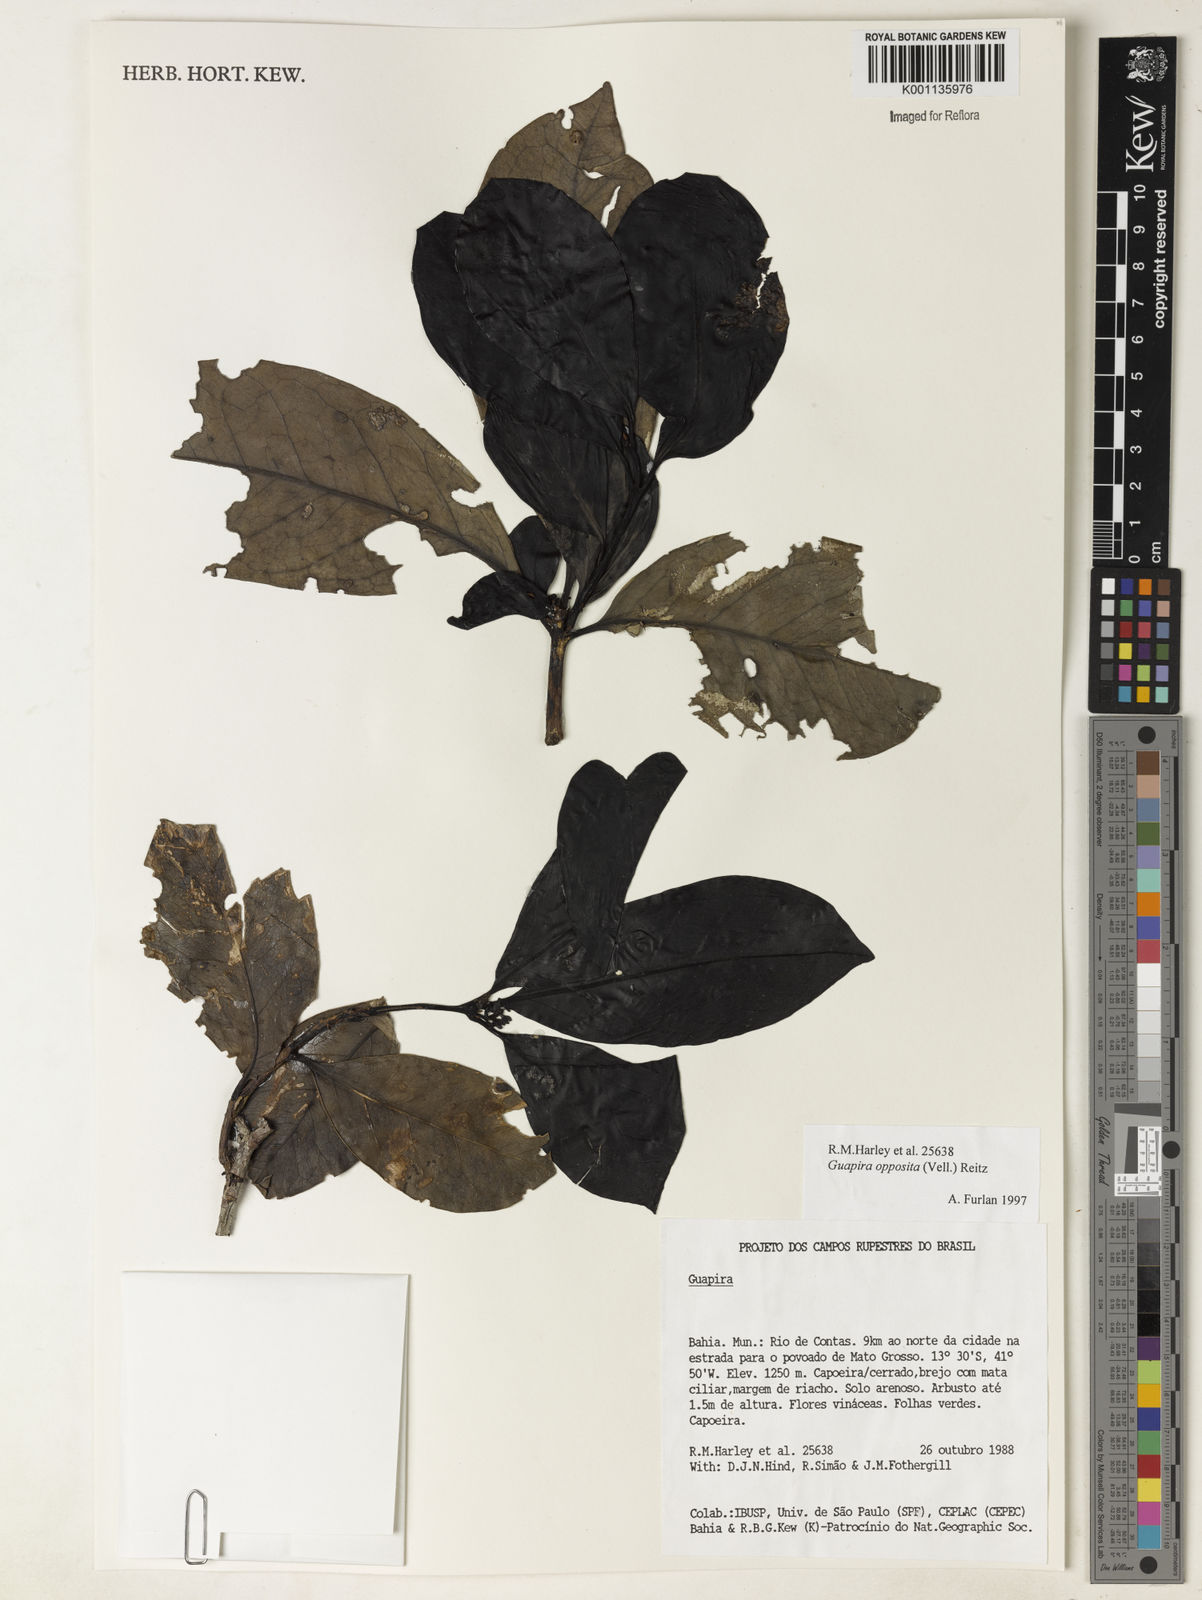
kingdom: Plantae
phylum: Tracheophyta
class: Magnoliopsida
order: Caryophyllales
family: Nyctaginaceae
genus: Guapira
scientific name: Guapira opposita
